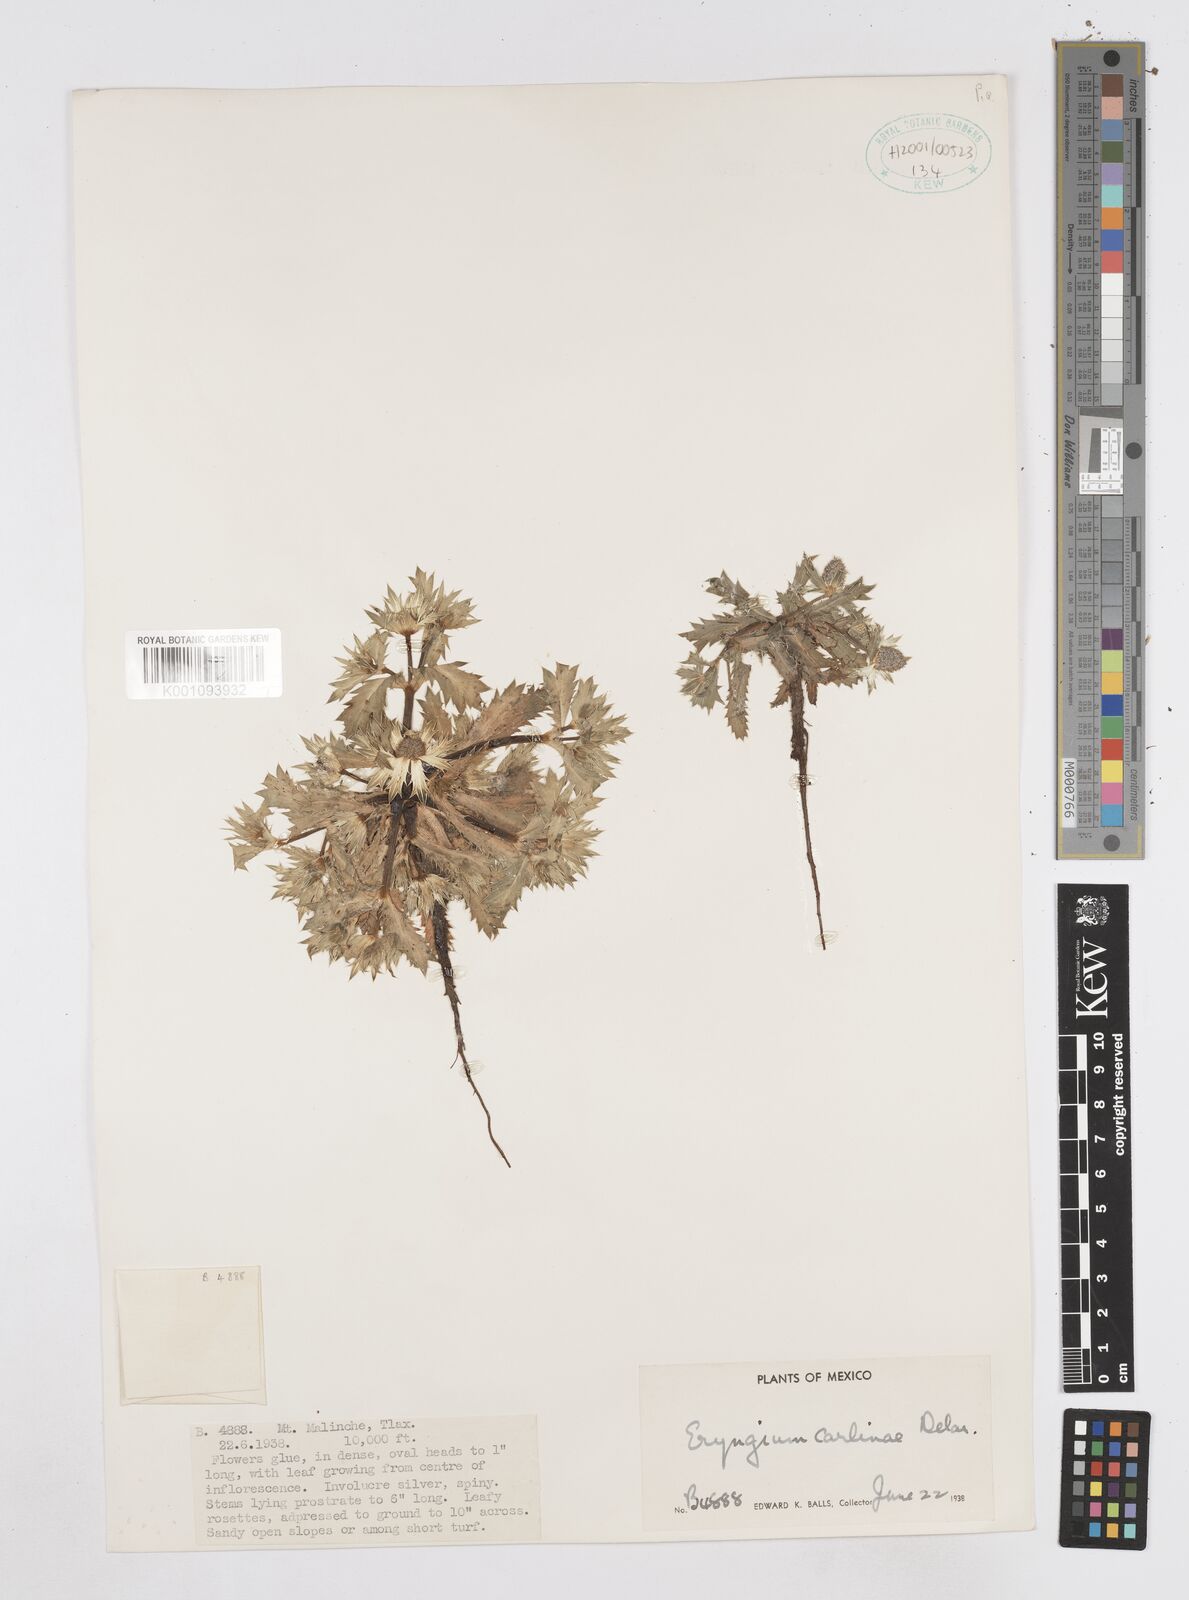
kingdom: Plantae
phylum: Tracheophyta
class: Magnoliopsida
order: Apiales
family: Apiaceae
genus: Eryngium
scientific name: Eryngium carlinae
